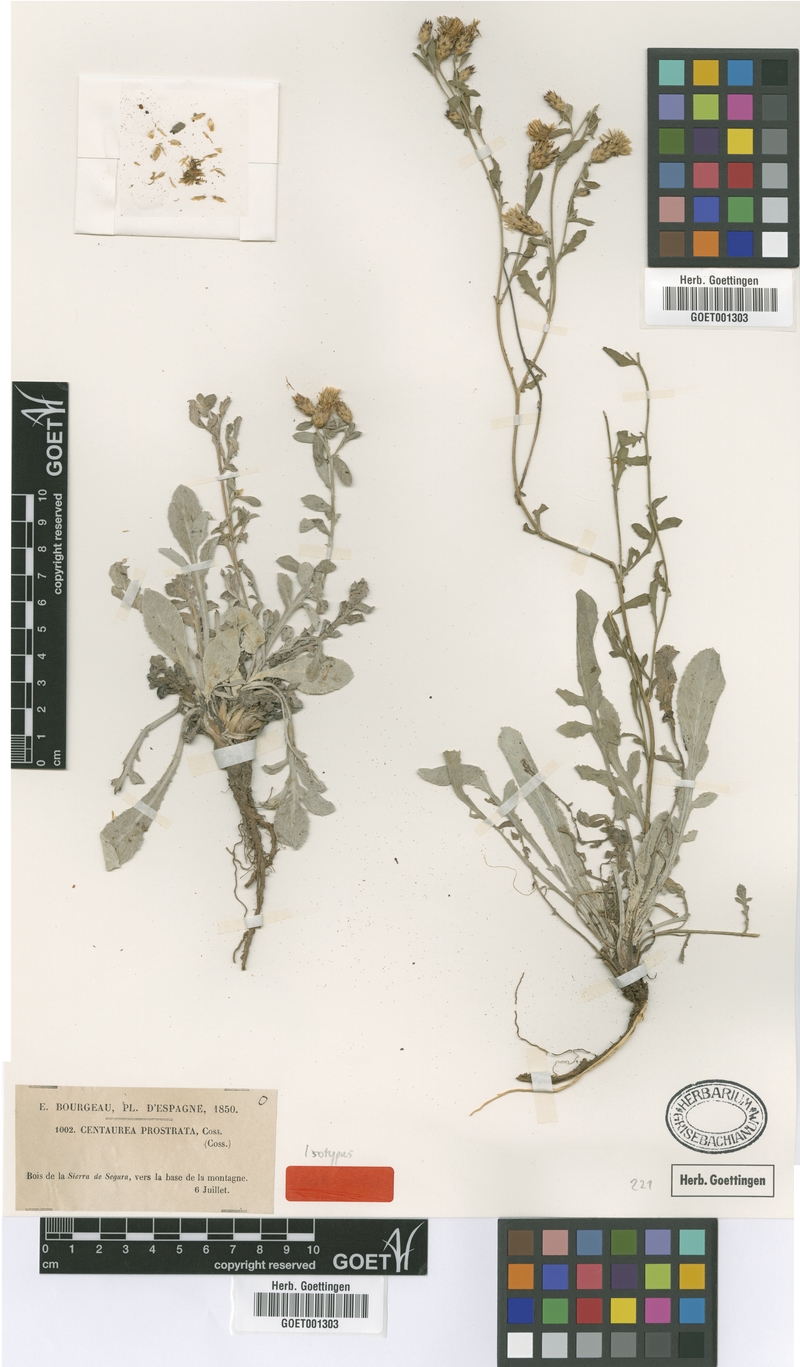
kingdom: Plantae
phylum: Tracheophyta
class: Magnoliopsida
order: Asterales
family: Asteraceae
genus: Centaurea
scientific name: Centaurea boissieri
